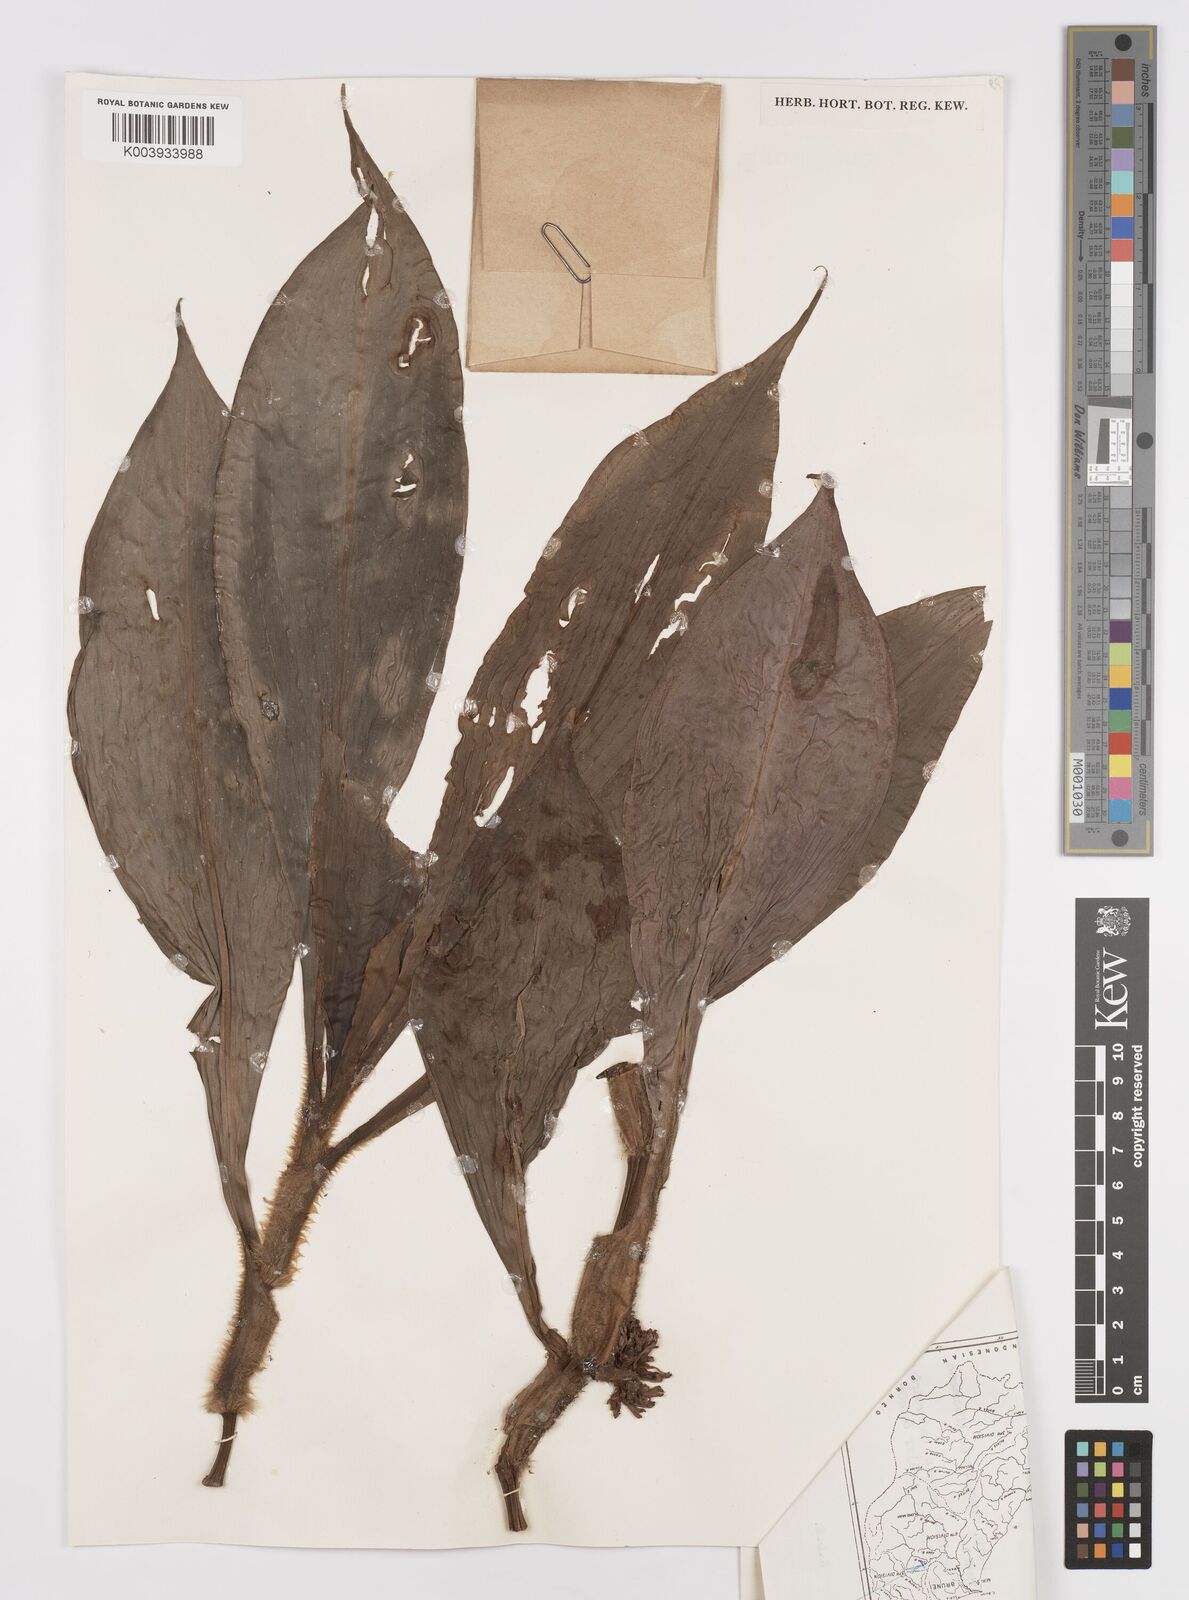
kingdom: Plantae
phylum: Tracheophyta
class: Liliopsida
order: Commelinales
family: Commelinaceae
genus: Amischotolype
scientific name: Amischotolype marginata
